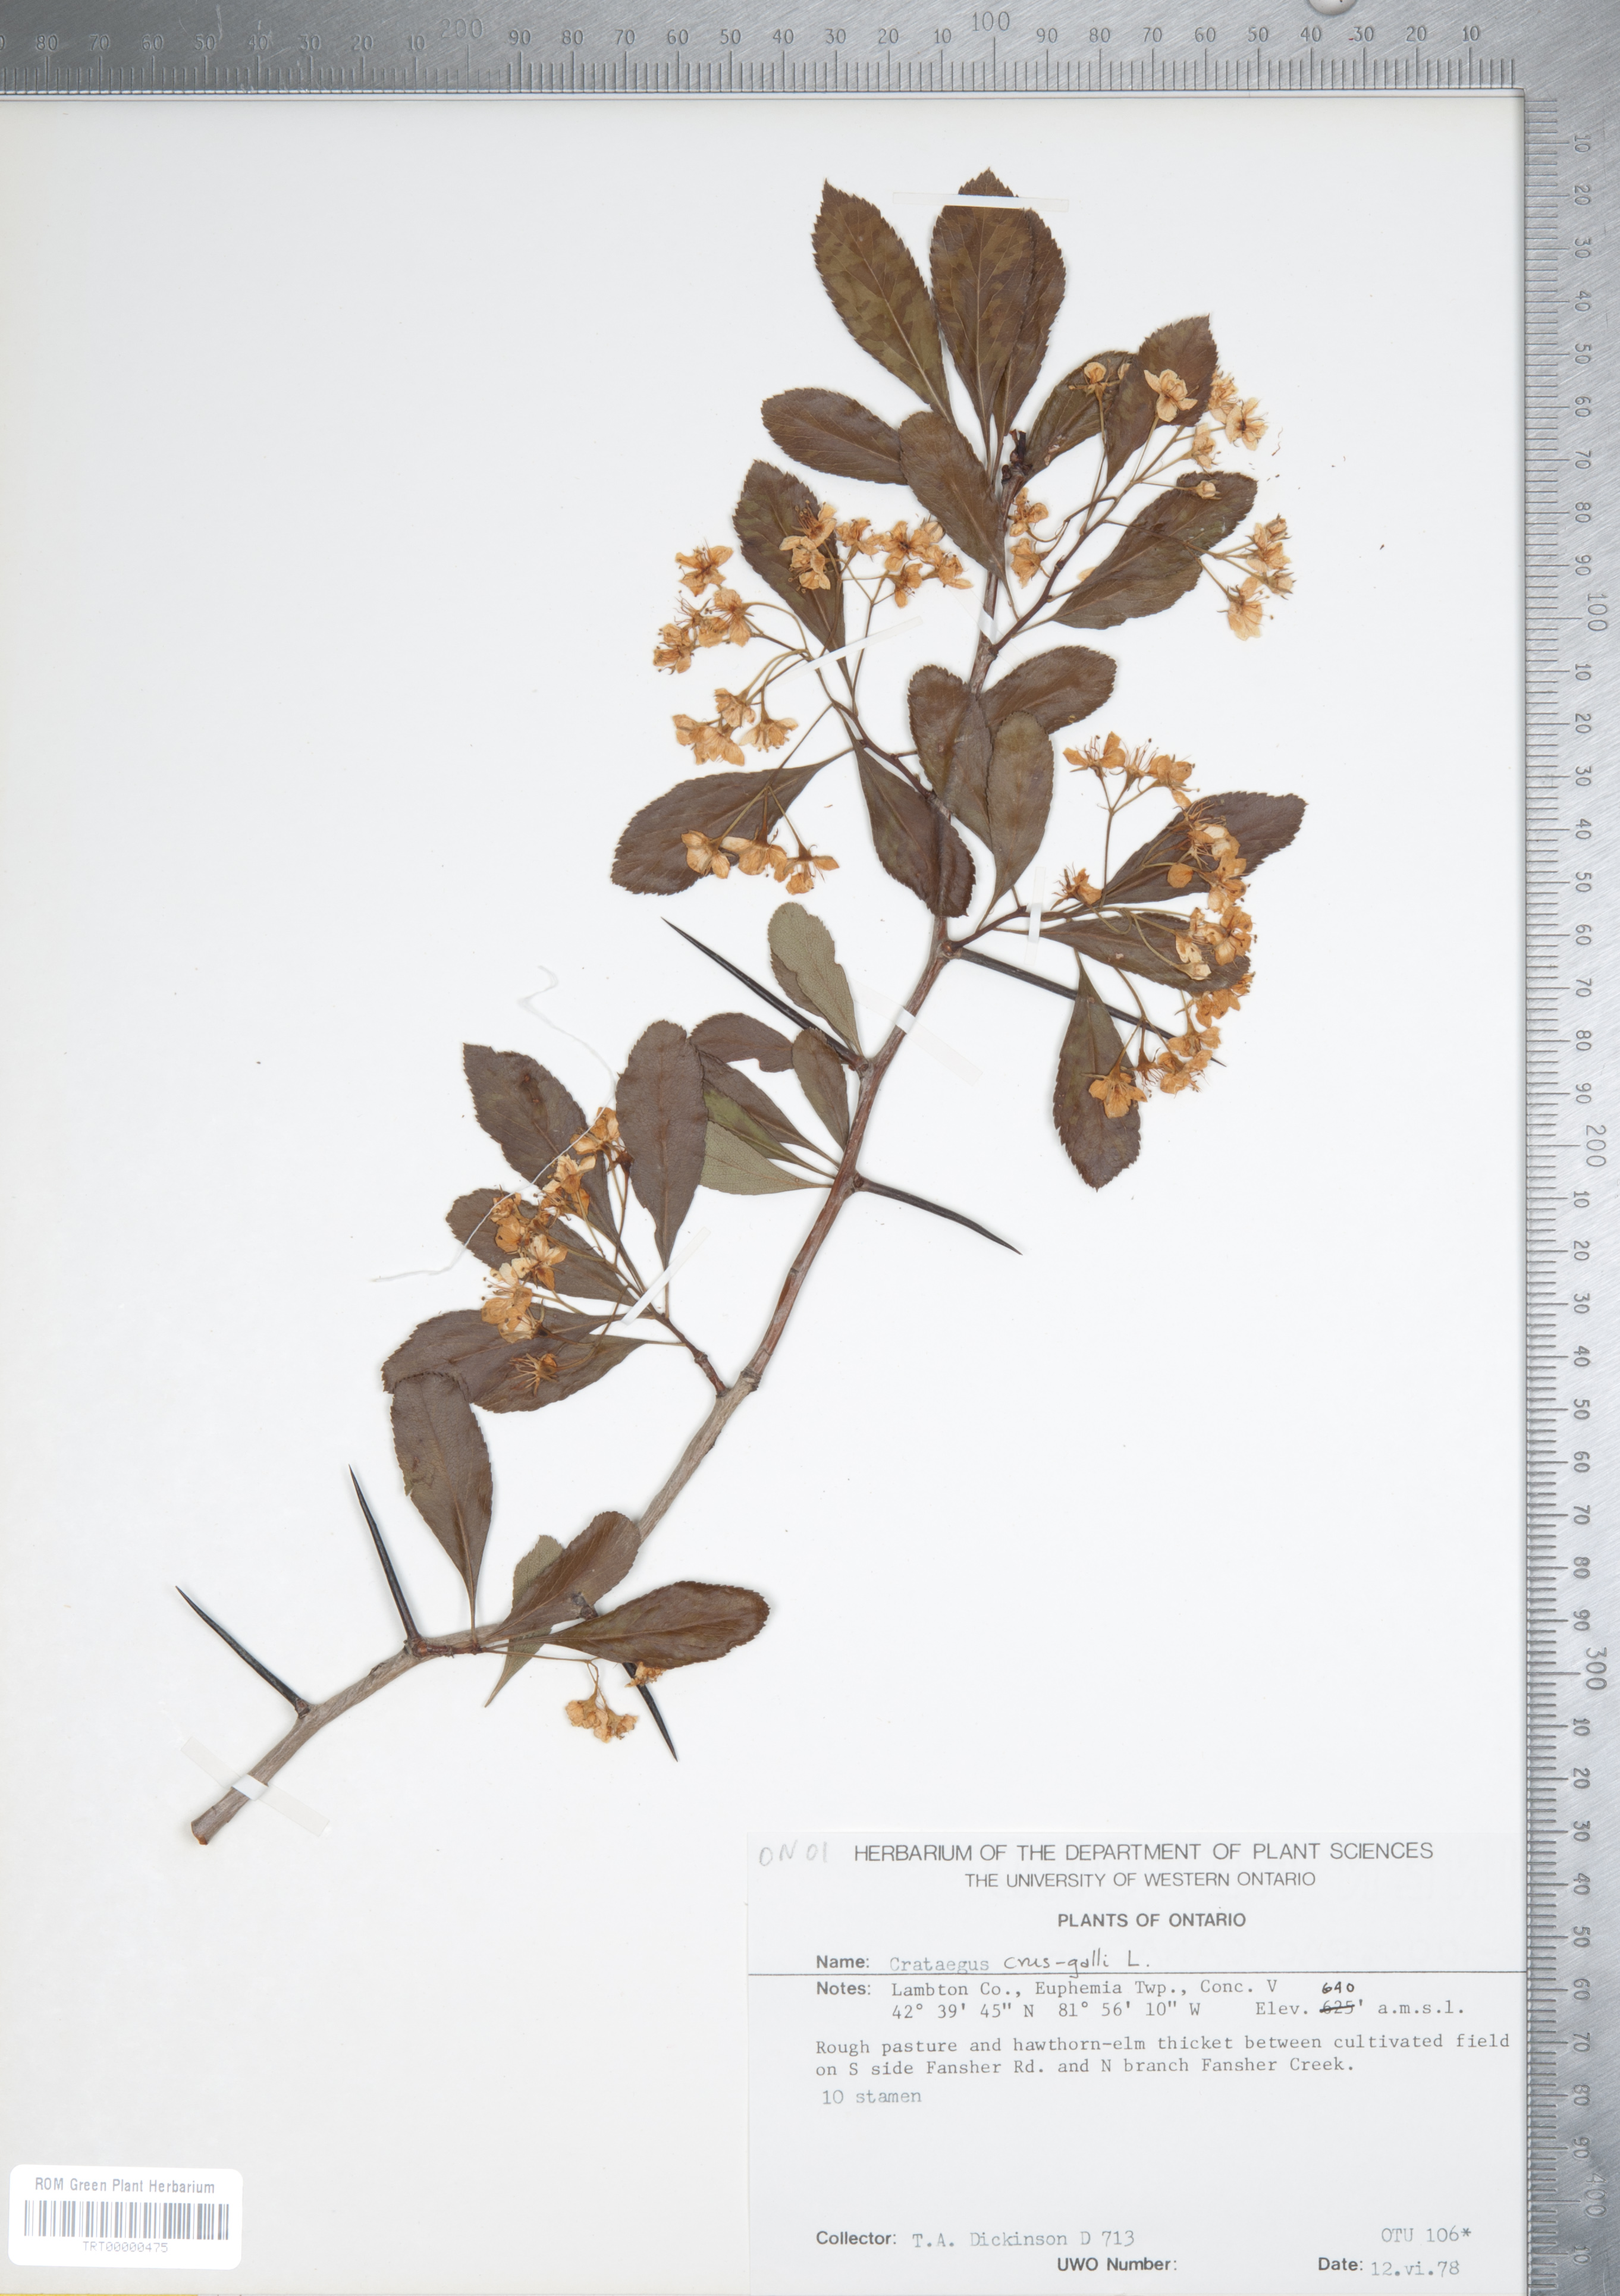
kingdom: Plantae
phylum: Tracheophyta
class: Magnoliopsida
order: Rosales
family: Rosaceae
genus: Crataegus
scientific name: Crataegus crus-galli
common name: Cockspurthorn
